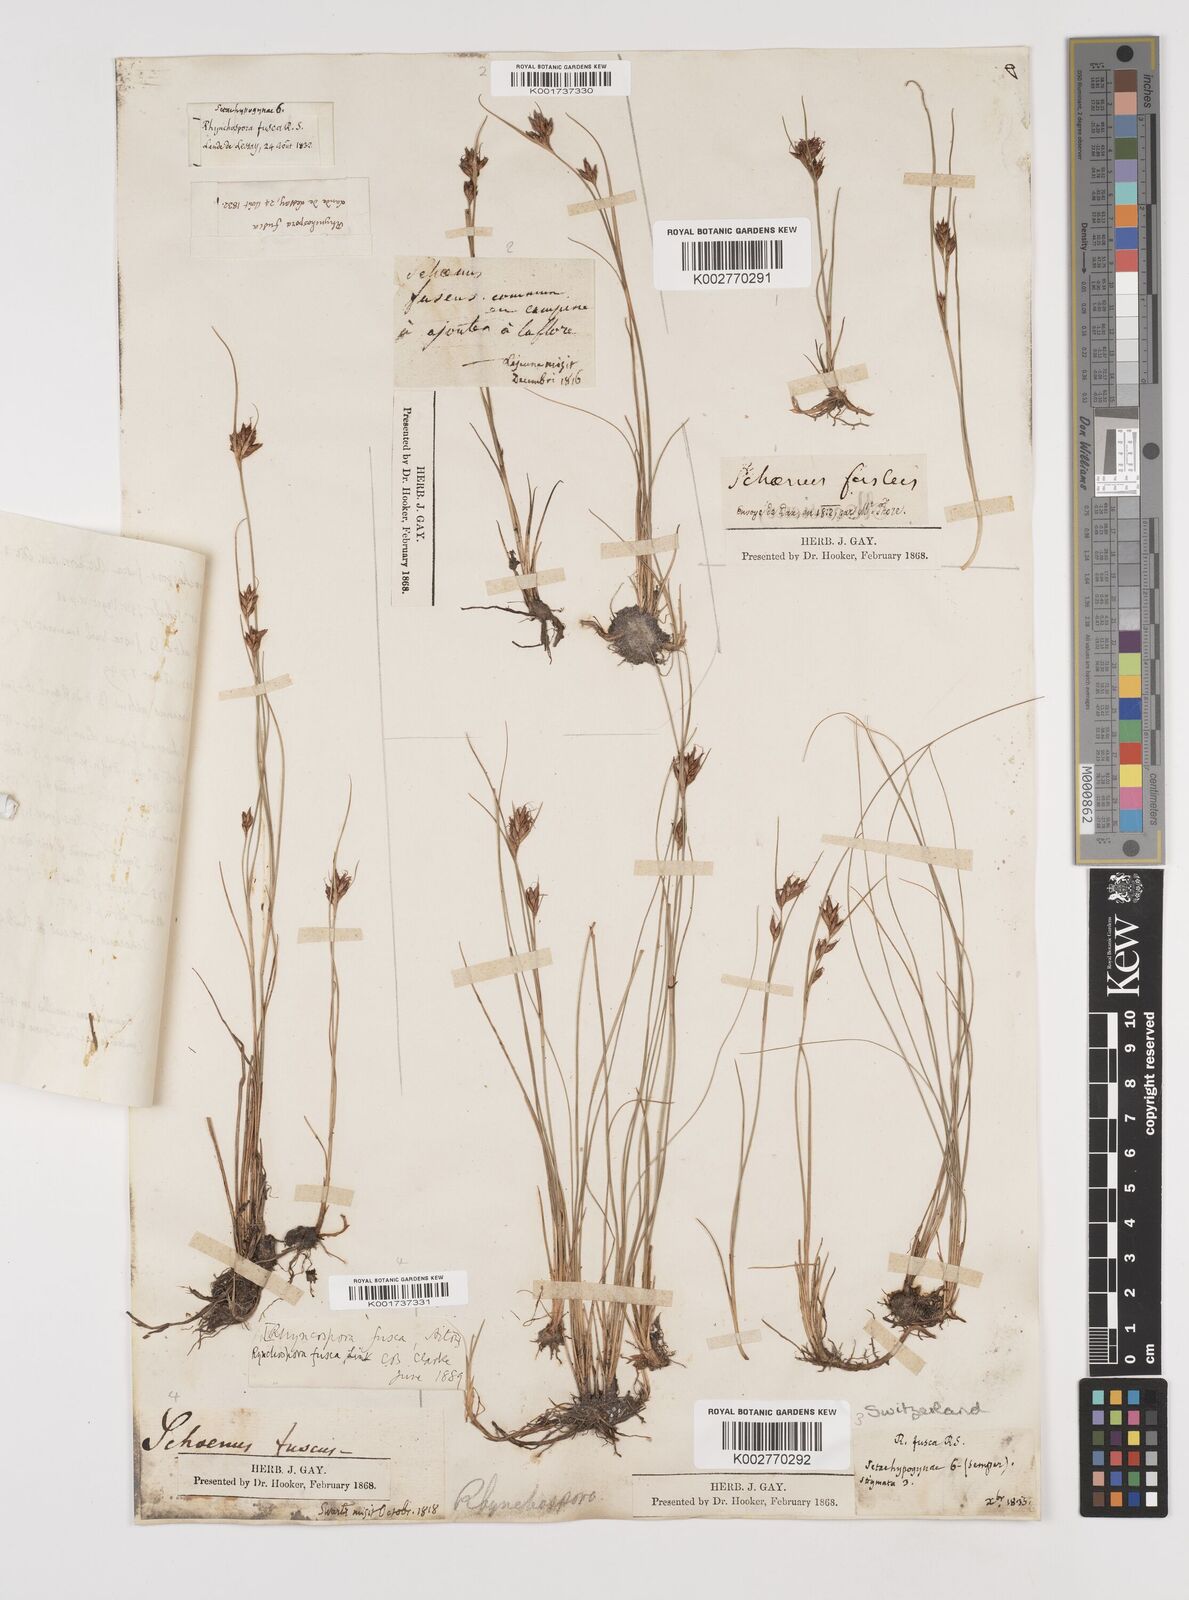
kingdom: Plantae
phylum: Tracheophyta
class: Liliopsida
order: Poales
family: Cyperaceae
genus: Rhynchospora
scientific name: Rhynchospora fusca
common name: Brown beak-sedge
